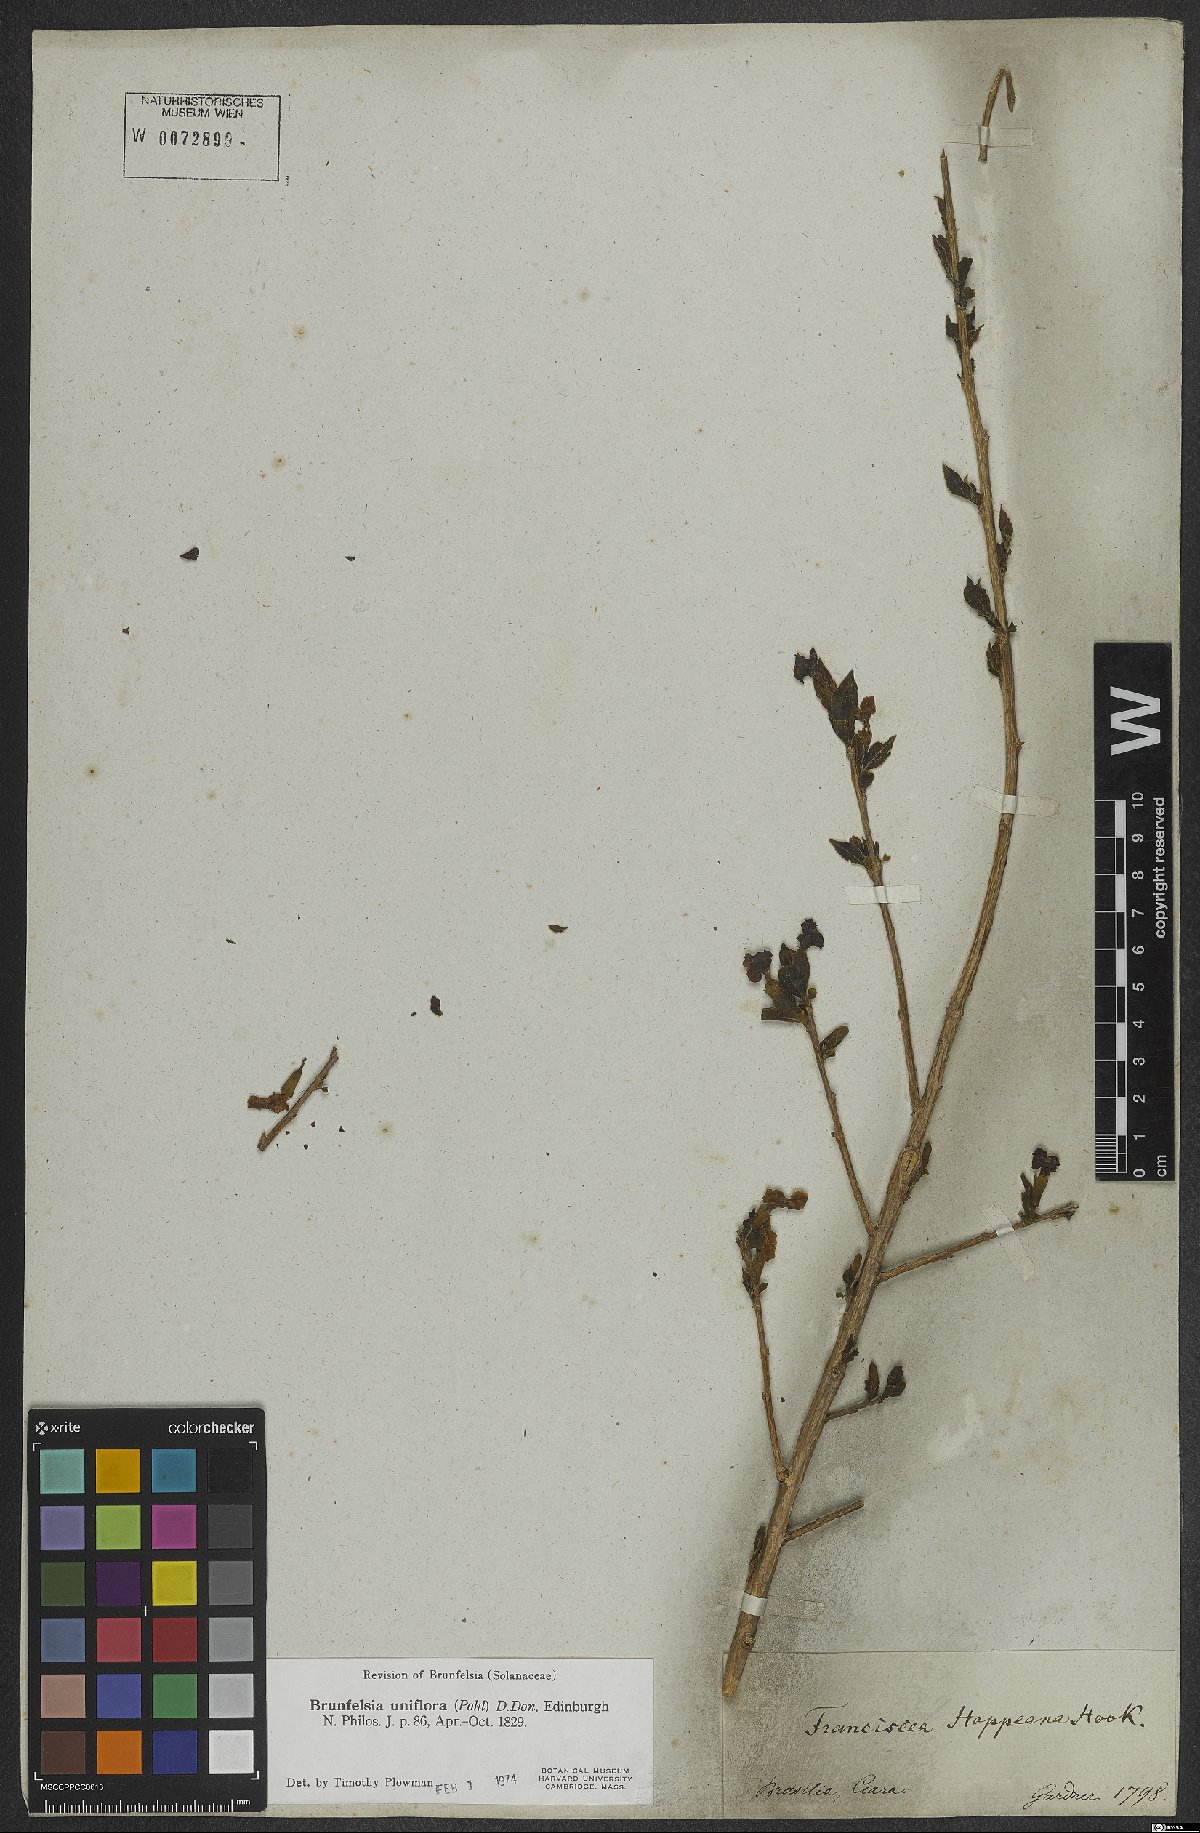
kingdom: Plantae
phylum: Tracheophyta
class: Magnoliopsida
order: Solanales
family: Solanaceae
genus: Brunfelsia
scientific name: Brunfelsia uniflora
